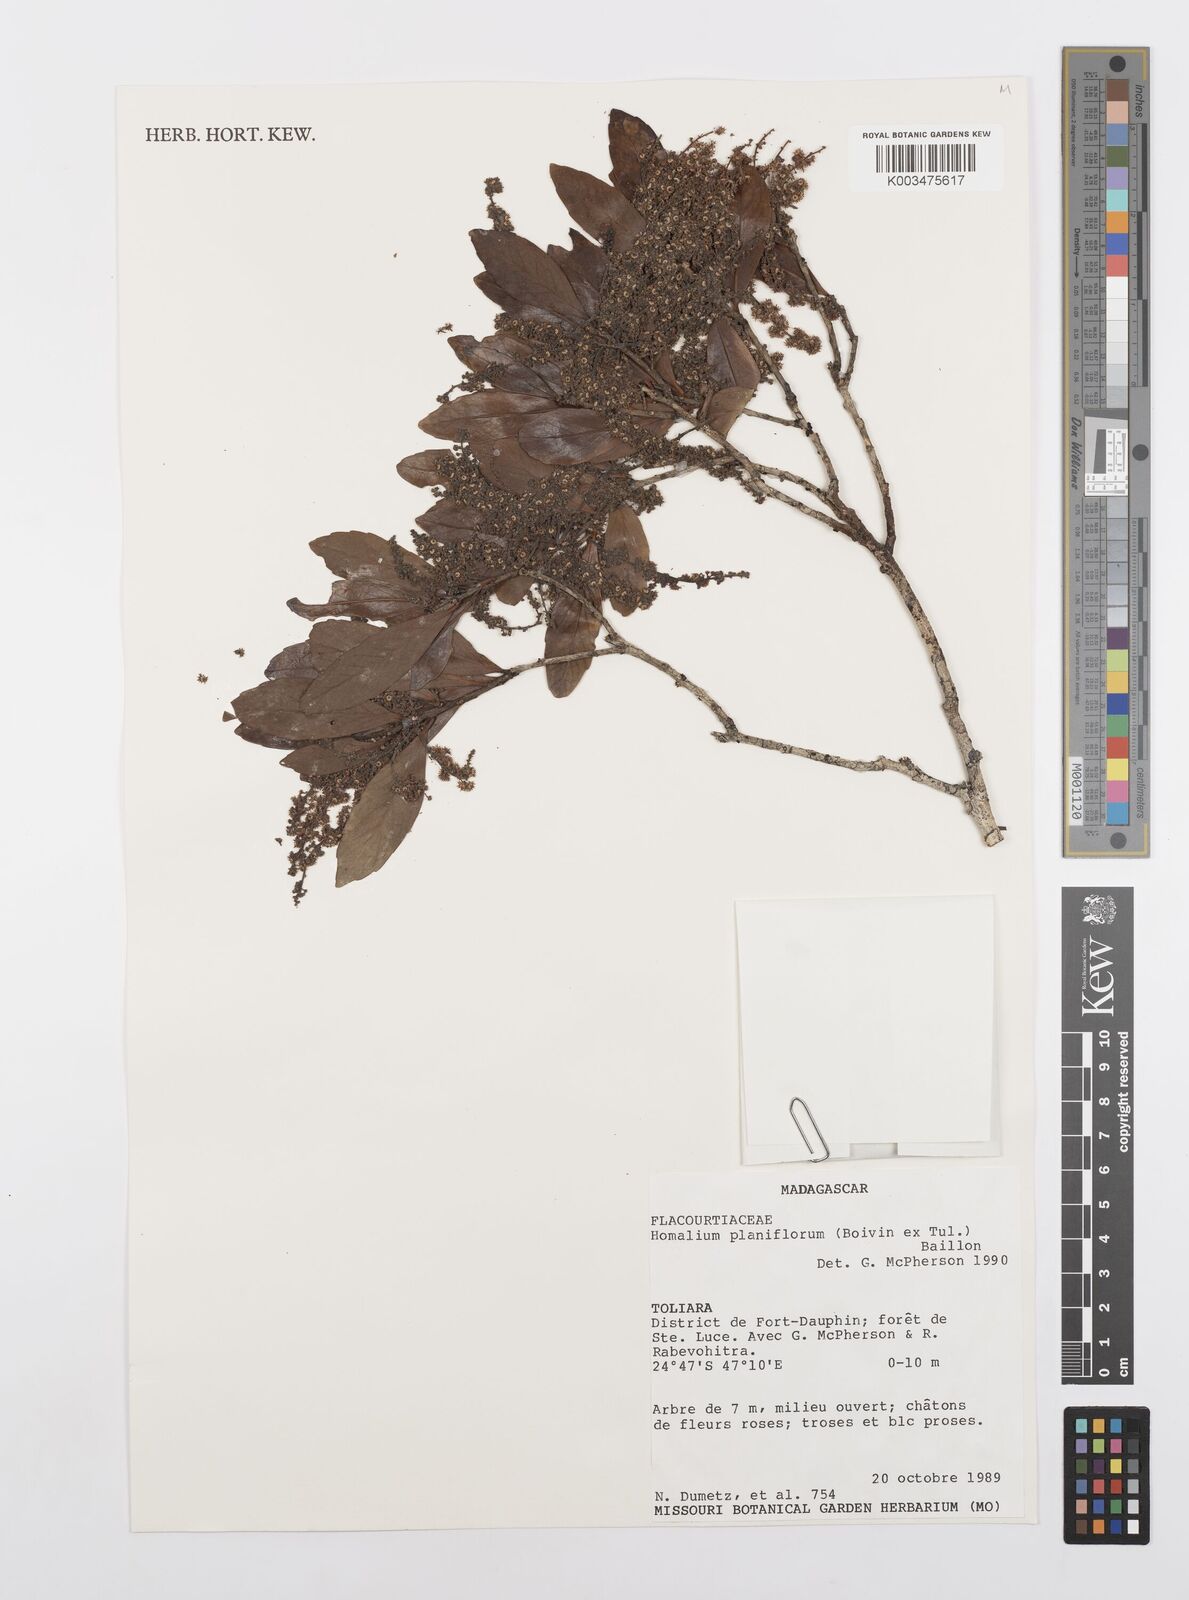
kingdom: Plantae
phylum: Tracheophyta
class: Magnoliopsida
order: Malpighiales
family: Salicaceae
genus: Homalium
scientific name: Homalium planiflorum
